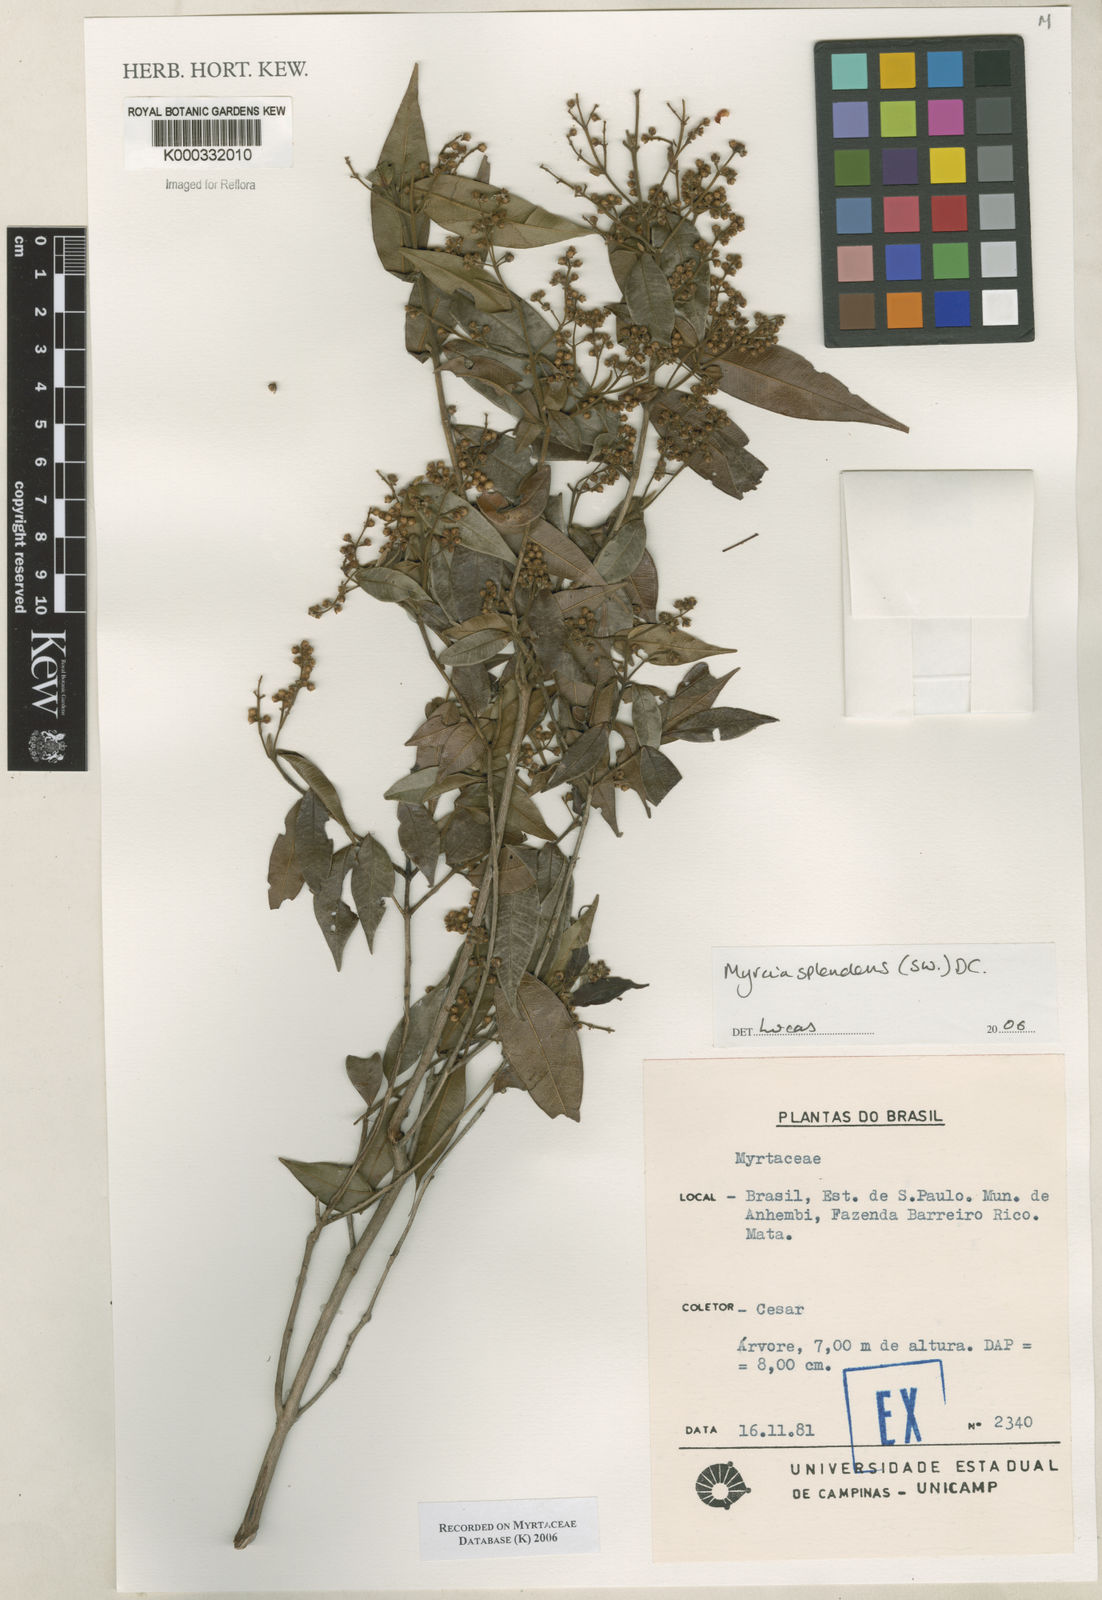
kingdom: Plantae
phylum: Tracheophyta
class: Magnoliopsida
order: Myrtales
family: Myrtaceae
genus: Myrcia
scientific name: Myrcia splendens
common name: Surinam cherry
